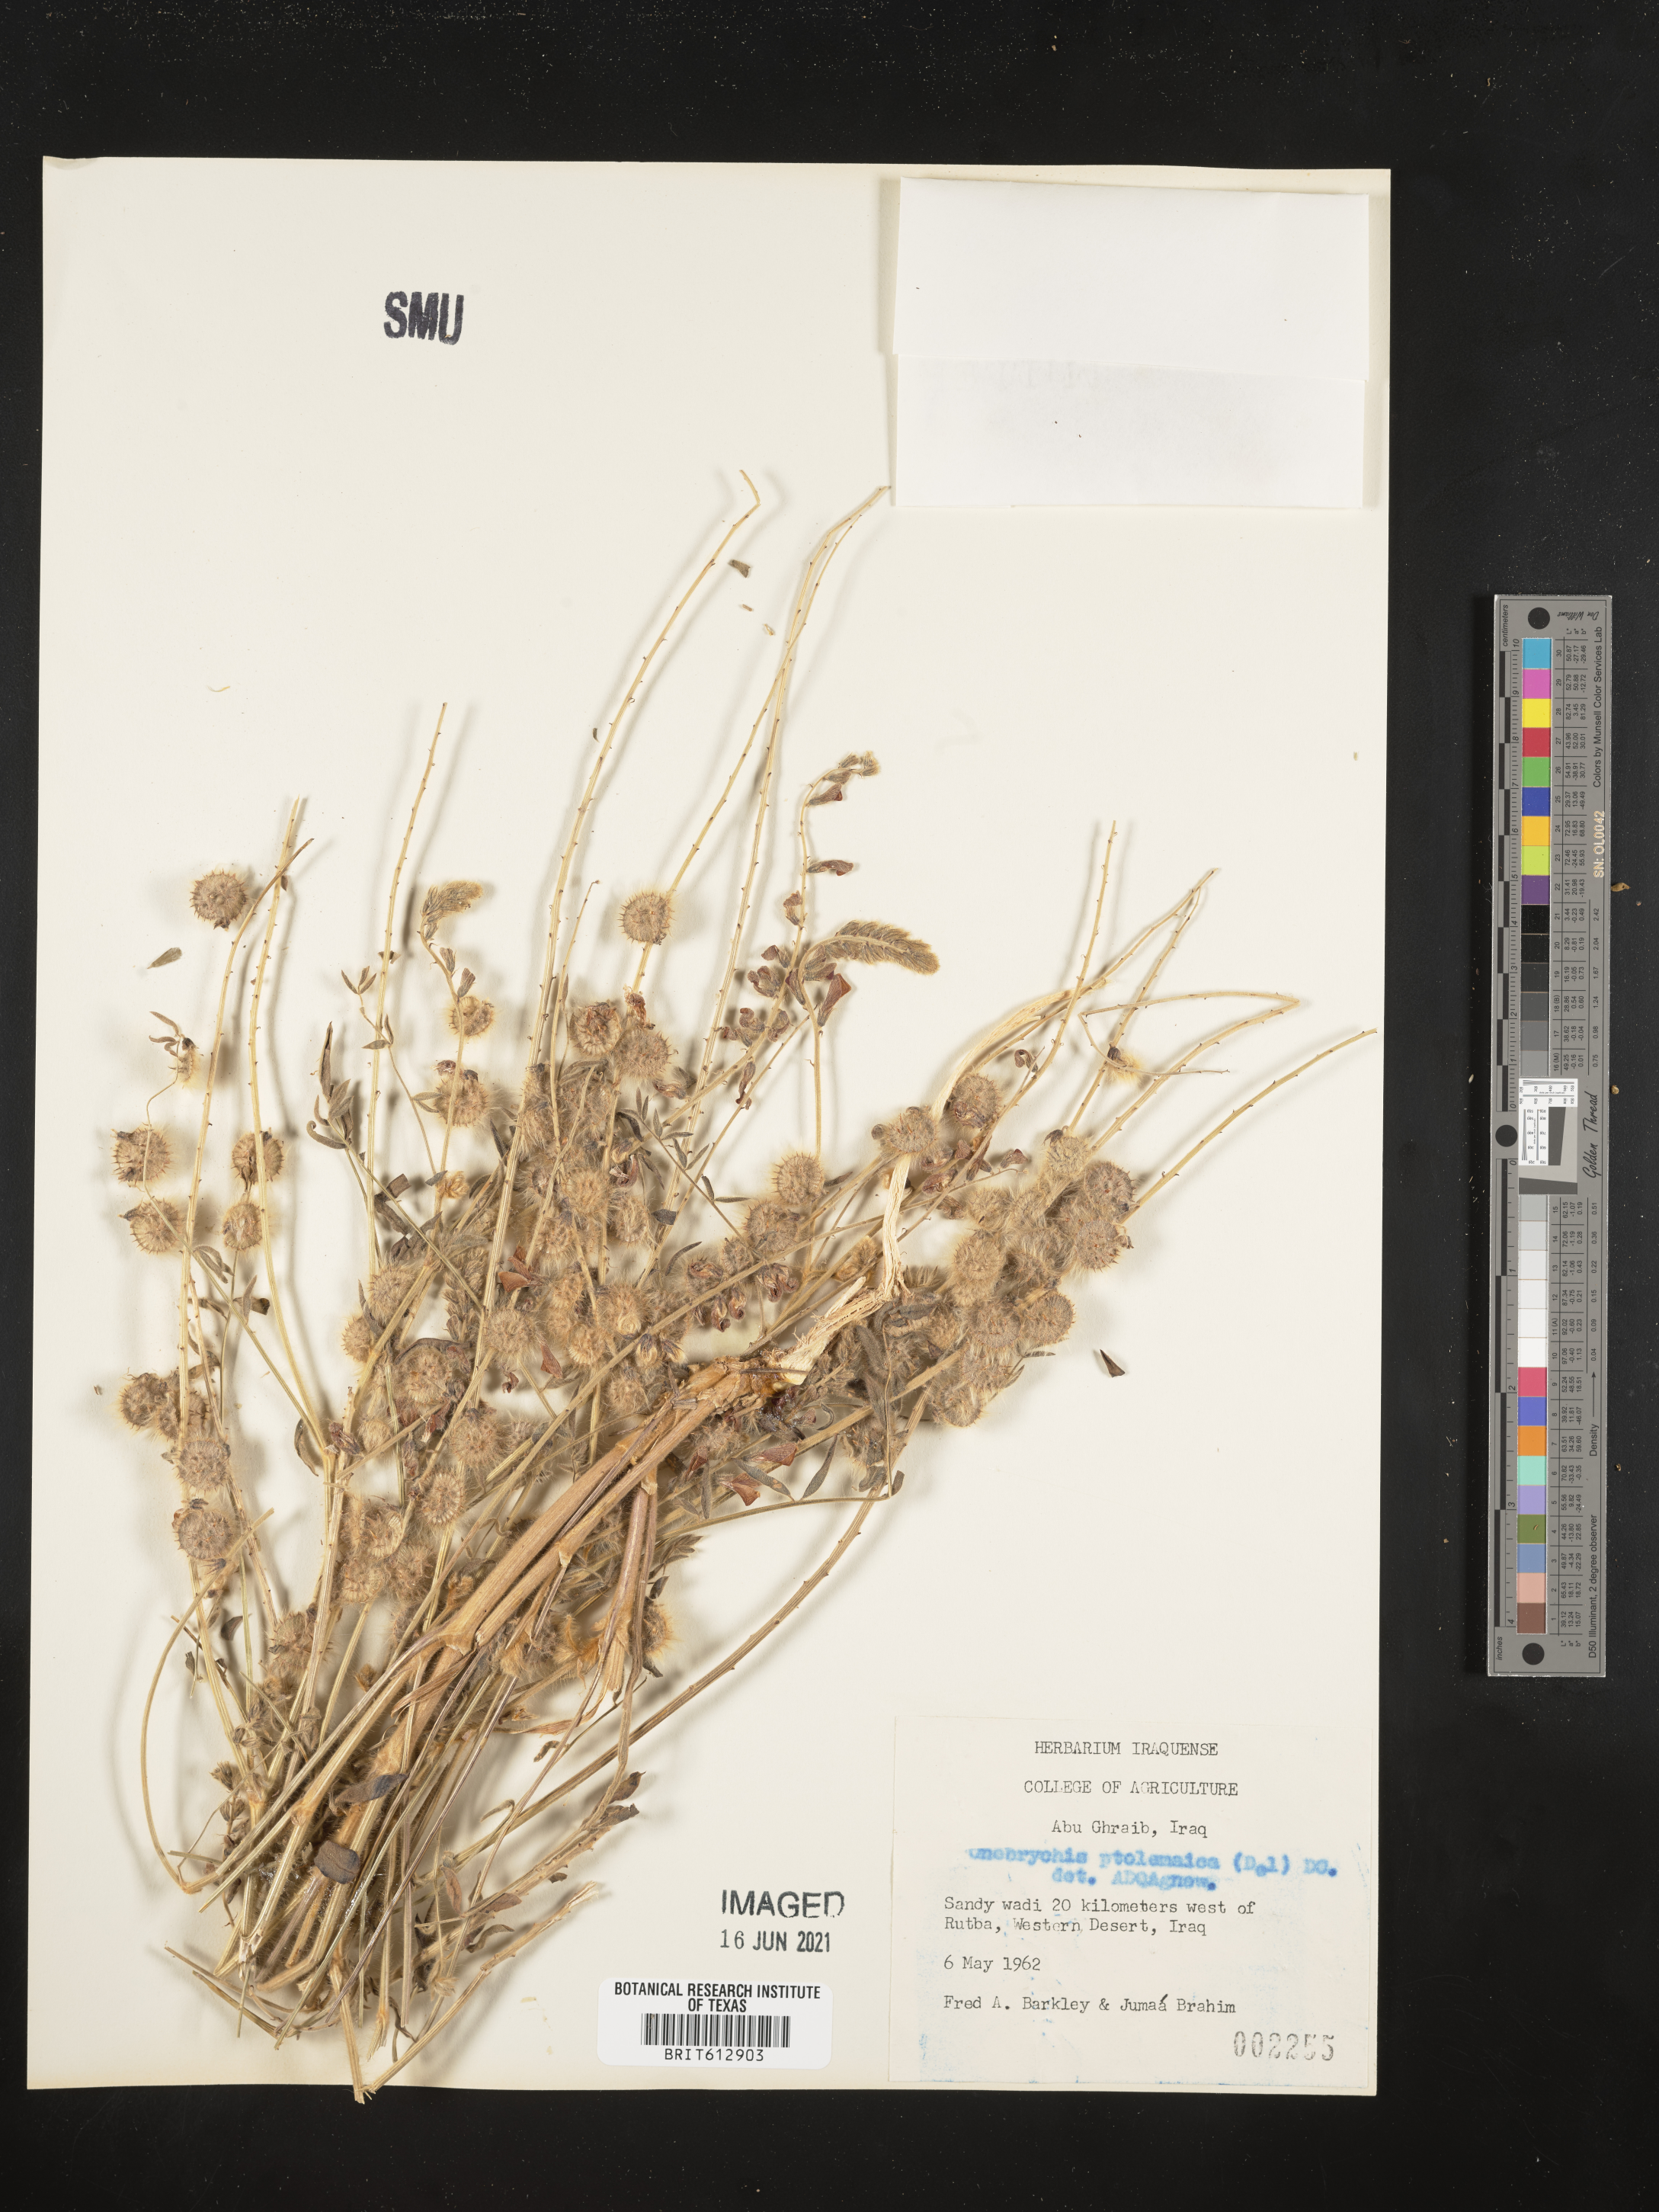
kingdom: Plantae
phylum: Tracheophyta
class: Magnoliopsida
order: Fabales
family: Fabaceae
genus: Onobrychis
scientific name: Onobrychis ptolemaica
